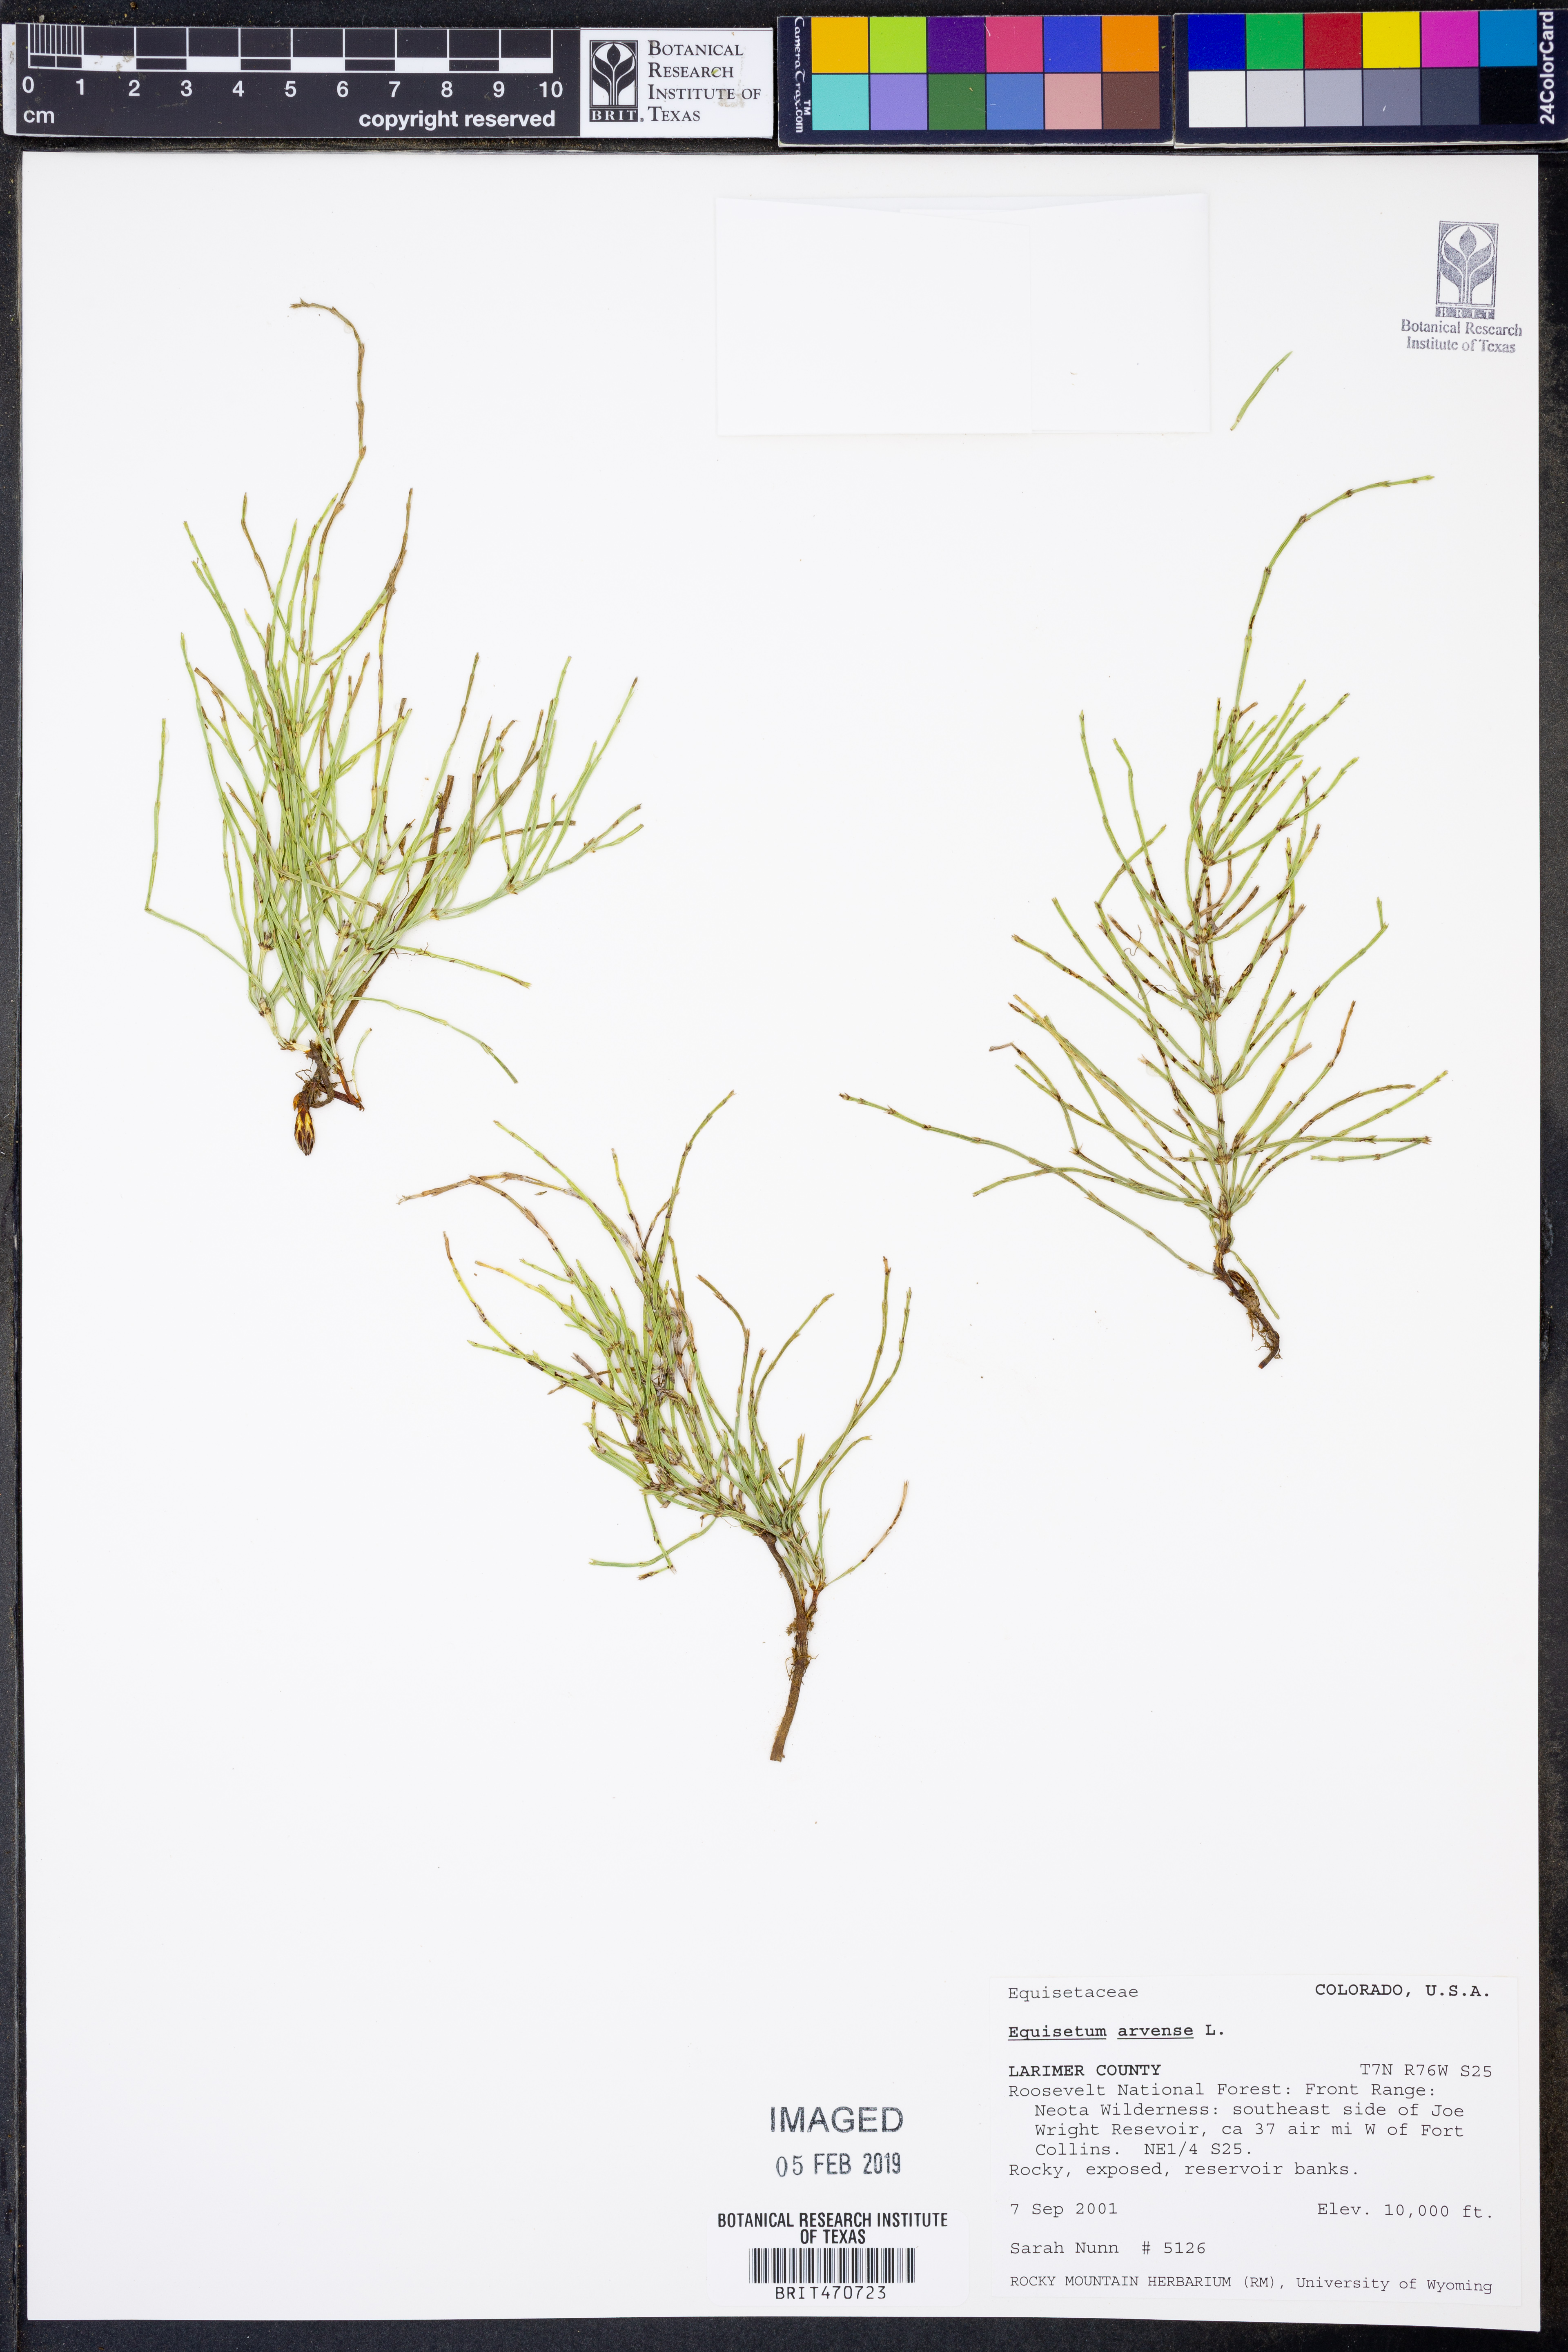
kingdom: Plantae
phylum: Tracheophyta
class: Polypodiopsida
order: Equisetales
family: Equisetaceae
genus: Equisetum
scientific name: Equisetum arvense
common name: Field horsetail
